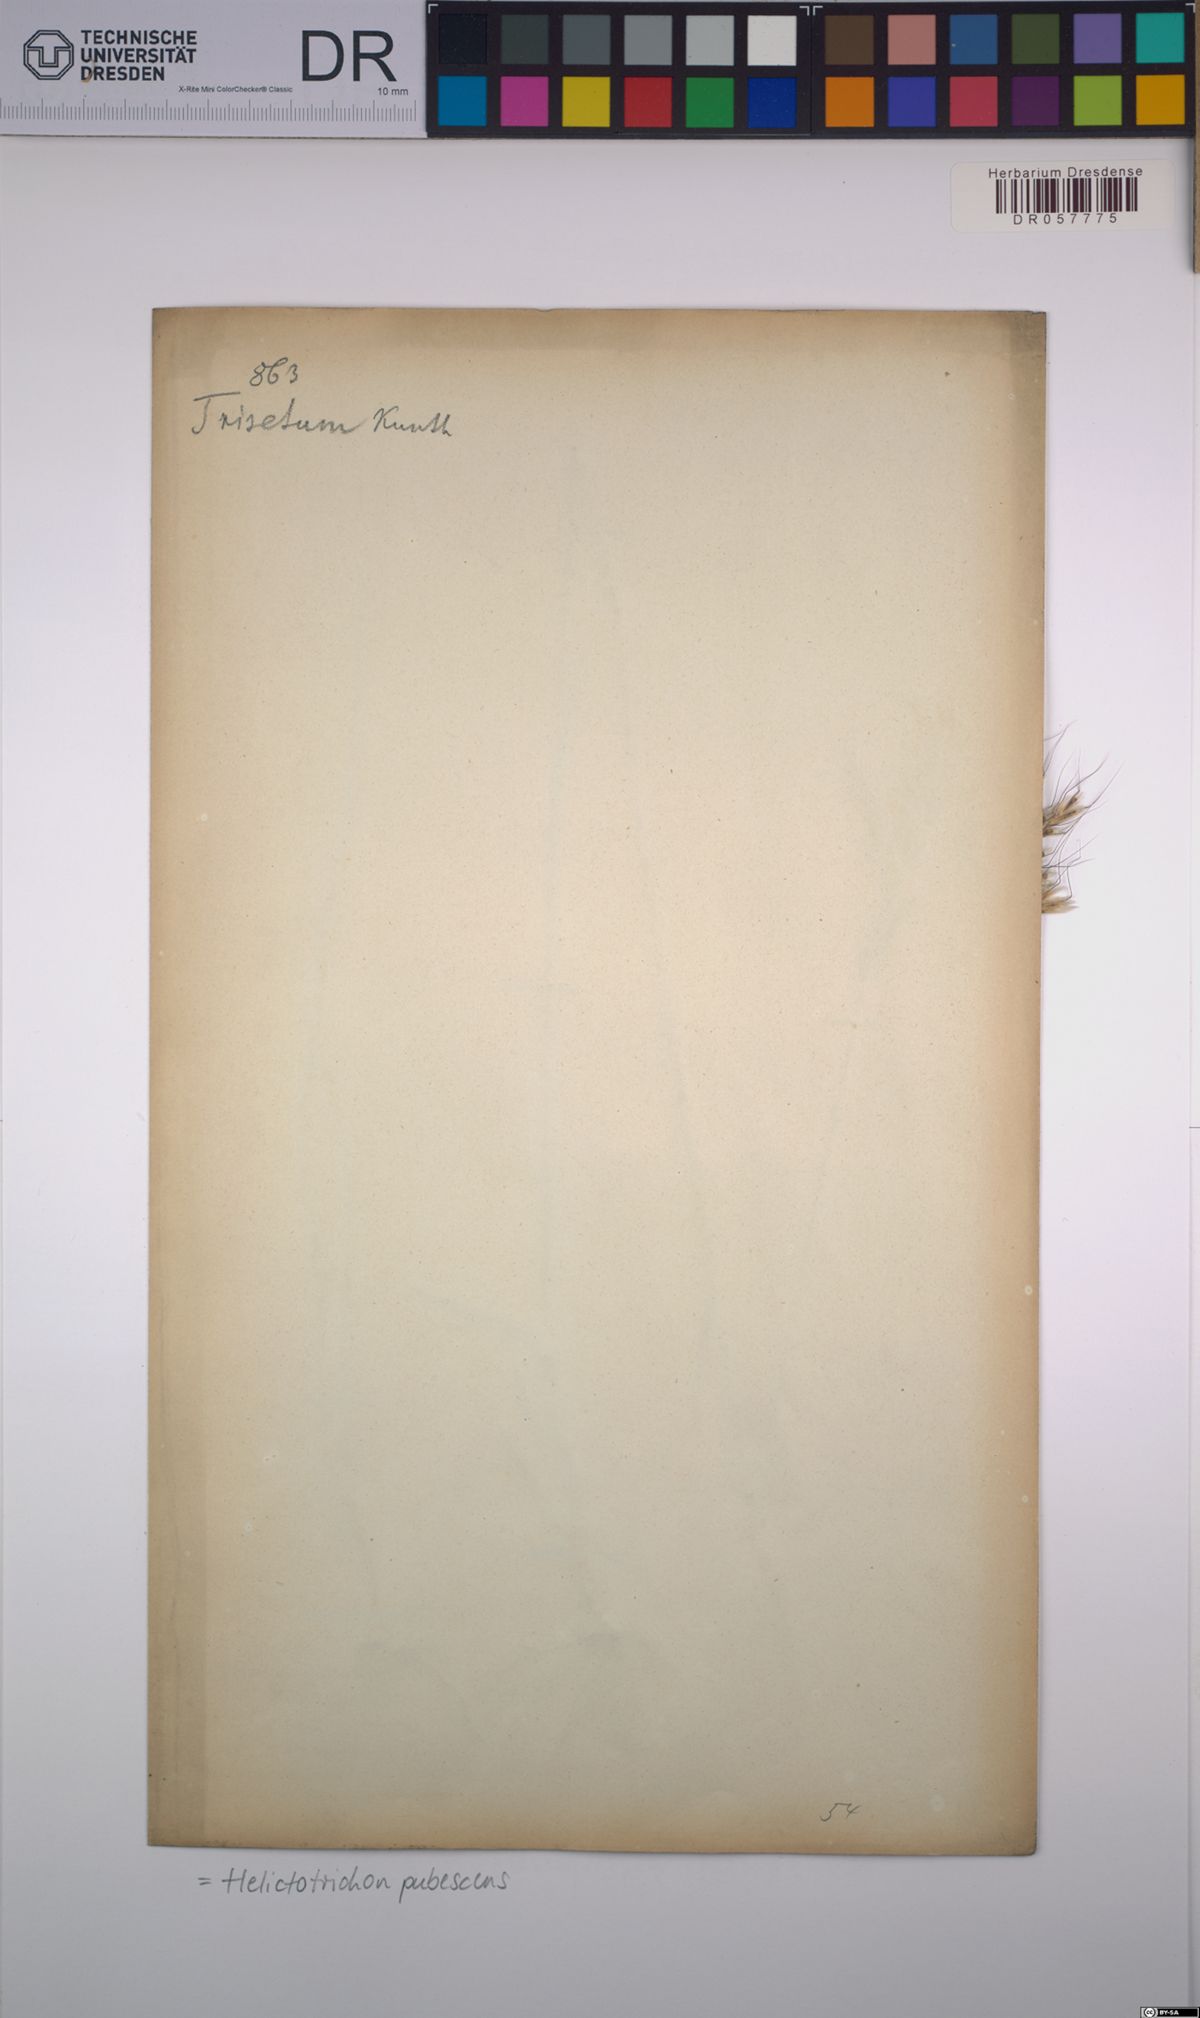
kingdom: Plantae
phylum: Tracheophyta
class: Liliopsida
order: Poales
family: Poaceae
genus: Avenula
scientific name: Avenula pubescens
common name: Downy alpine oatgrass
